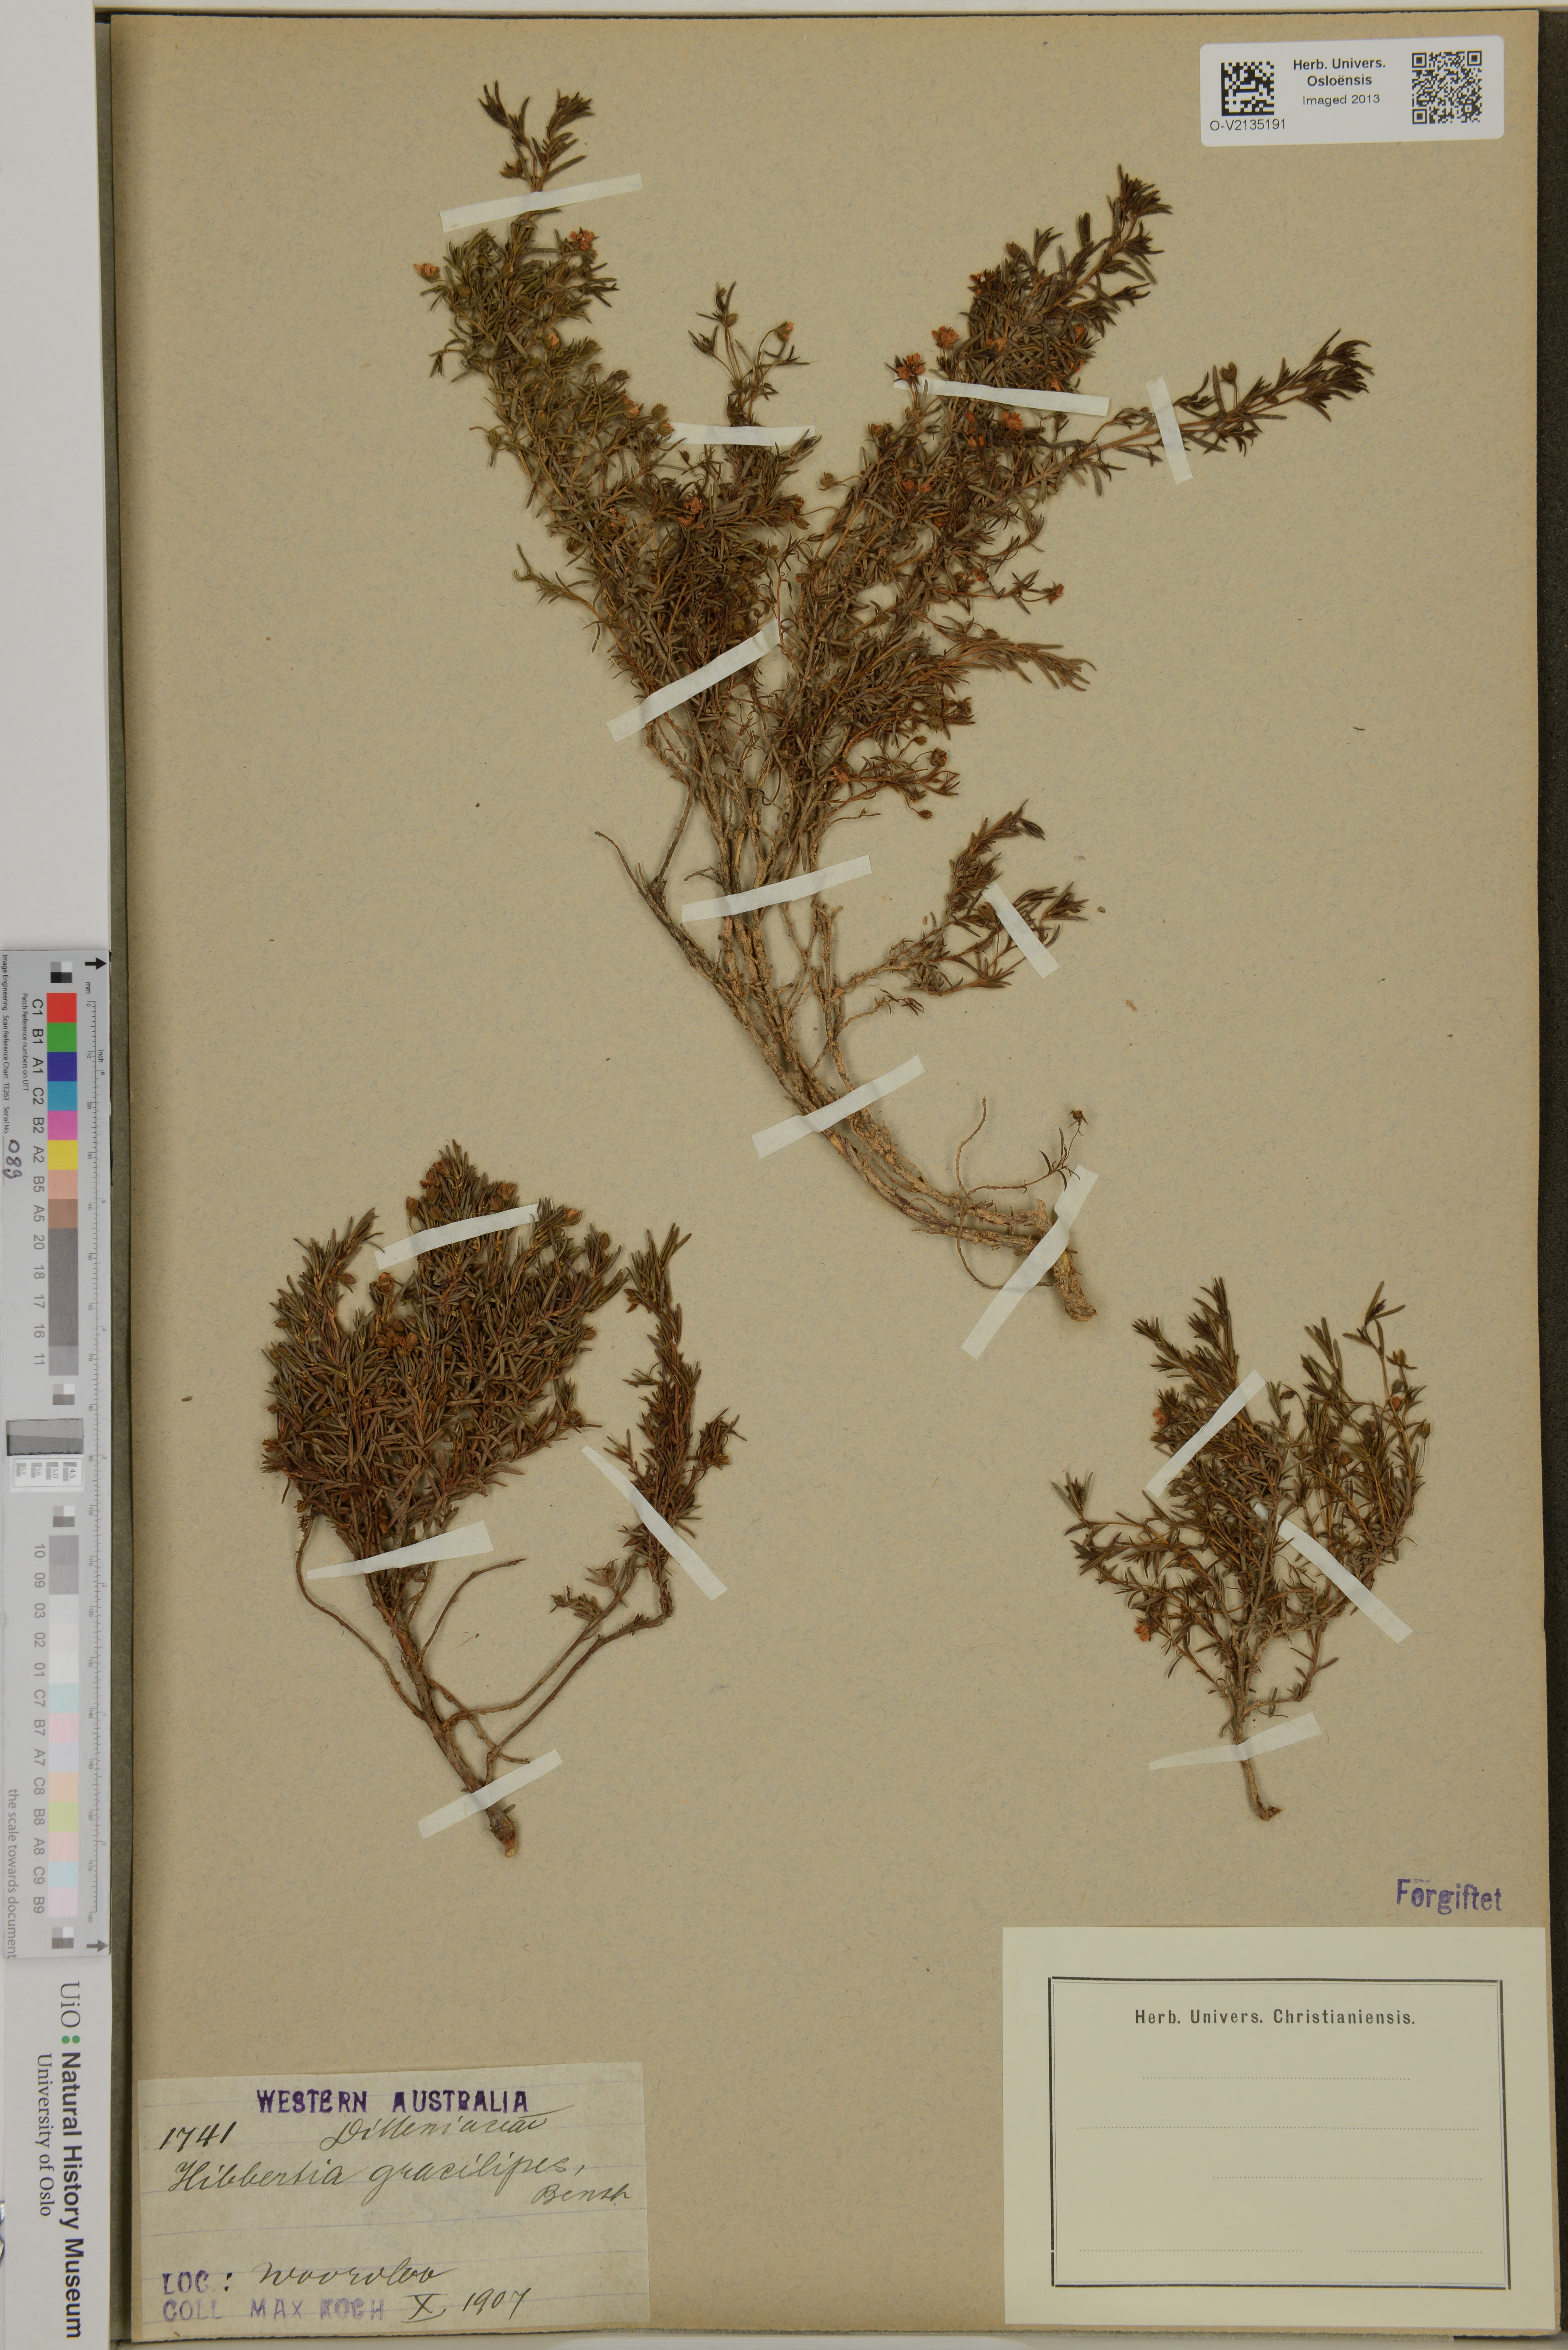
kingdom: Plantae
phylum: Tracheophyta
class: Magnoliopsida
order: Dilleniales
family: Dilleniaceae
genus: Hibbertia
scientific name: Hibbertia gracilipes
